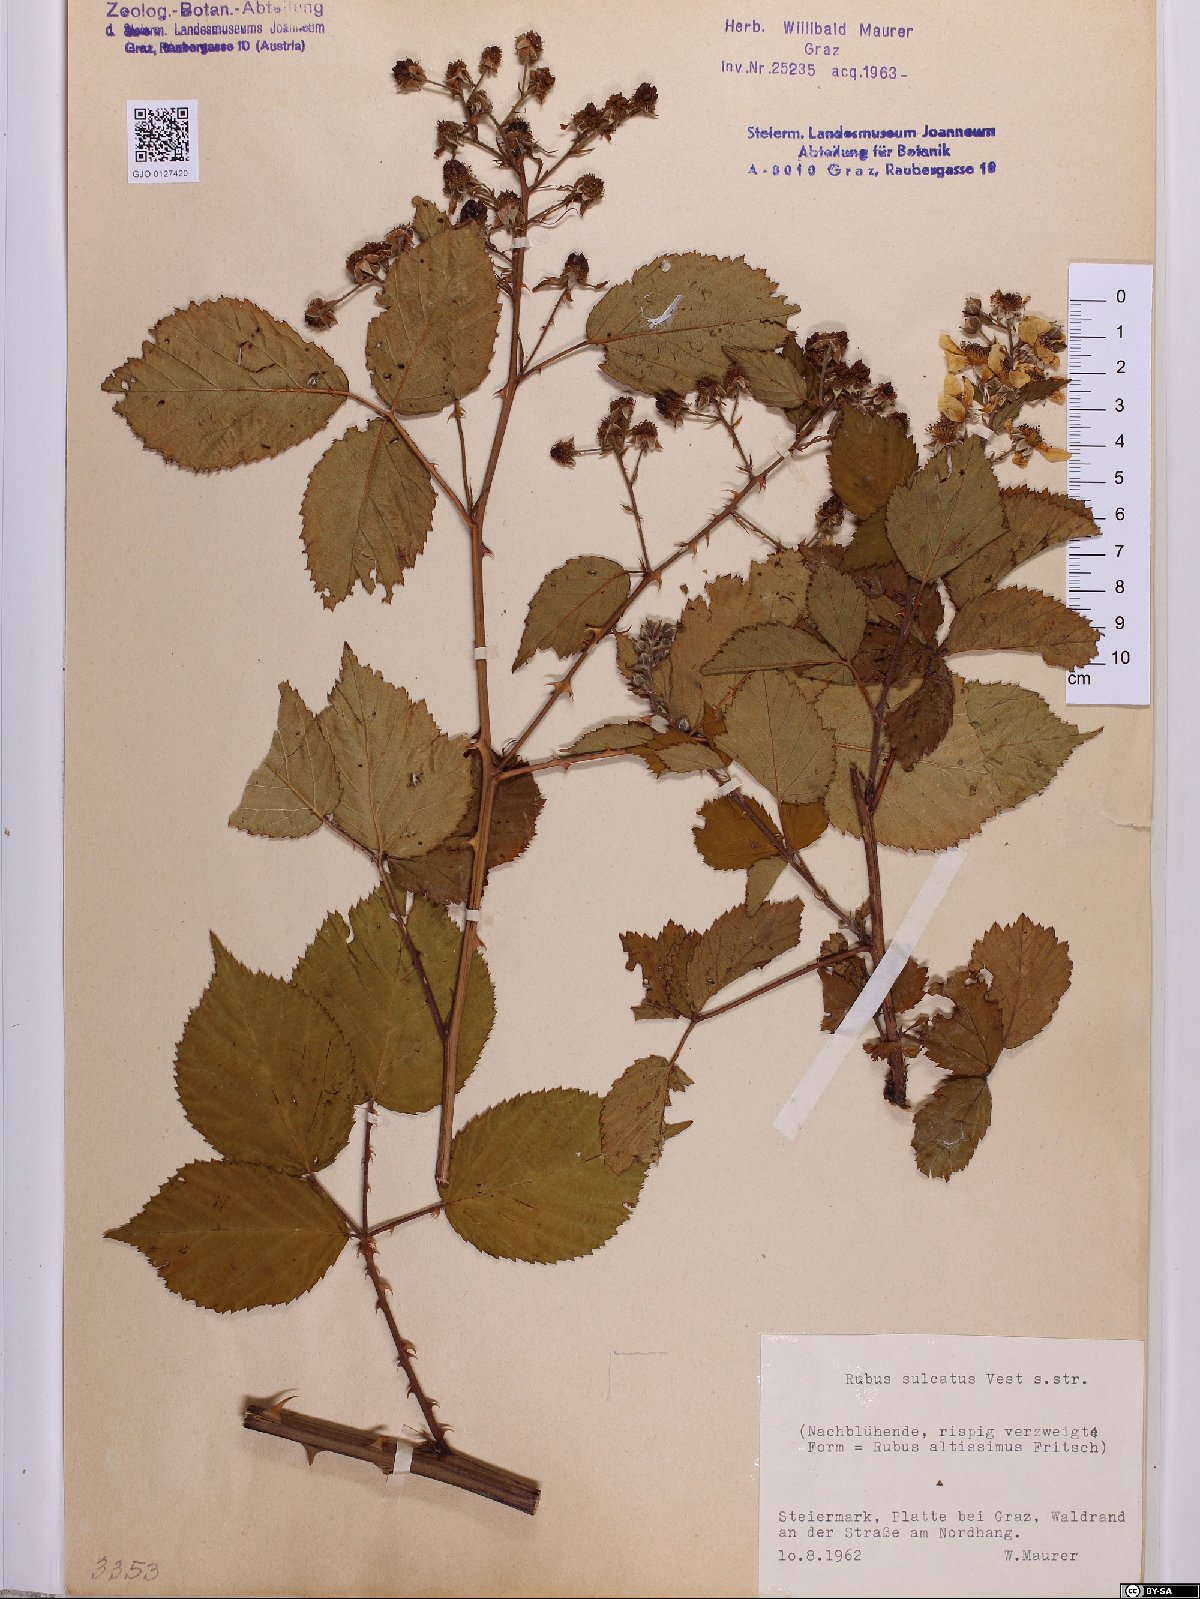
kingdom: Plantae
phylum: Tracheophyta
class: Magnoliopsida
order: Rosales
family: Rosaceae
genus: Rubus
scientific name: Rubus sulcatus
